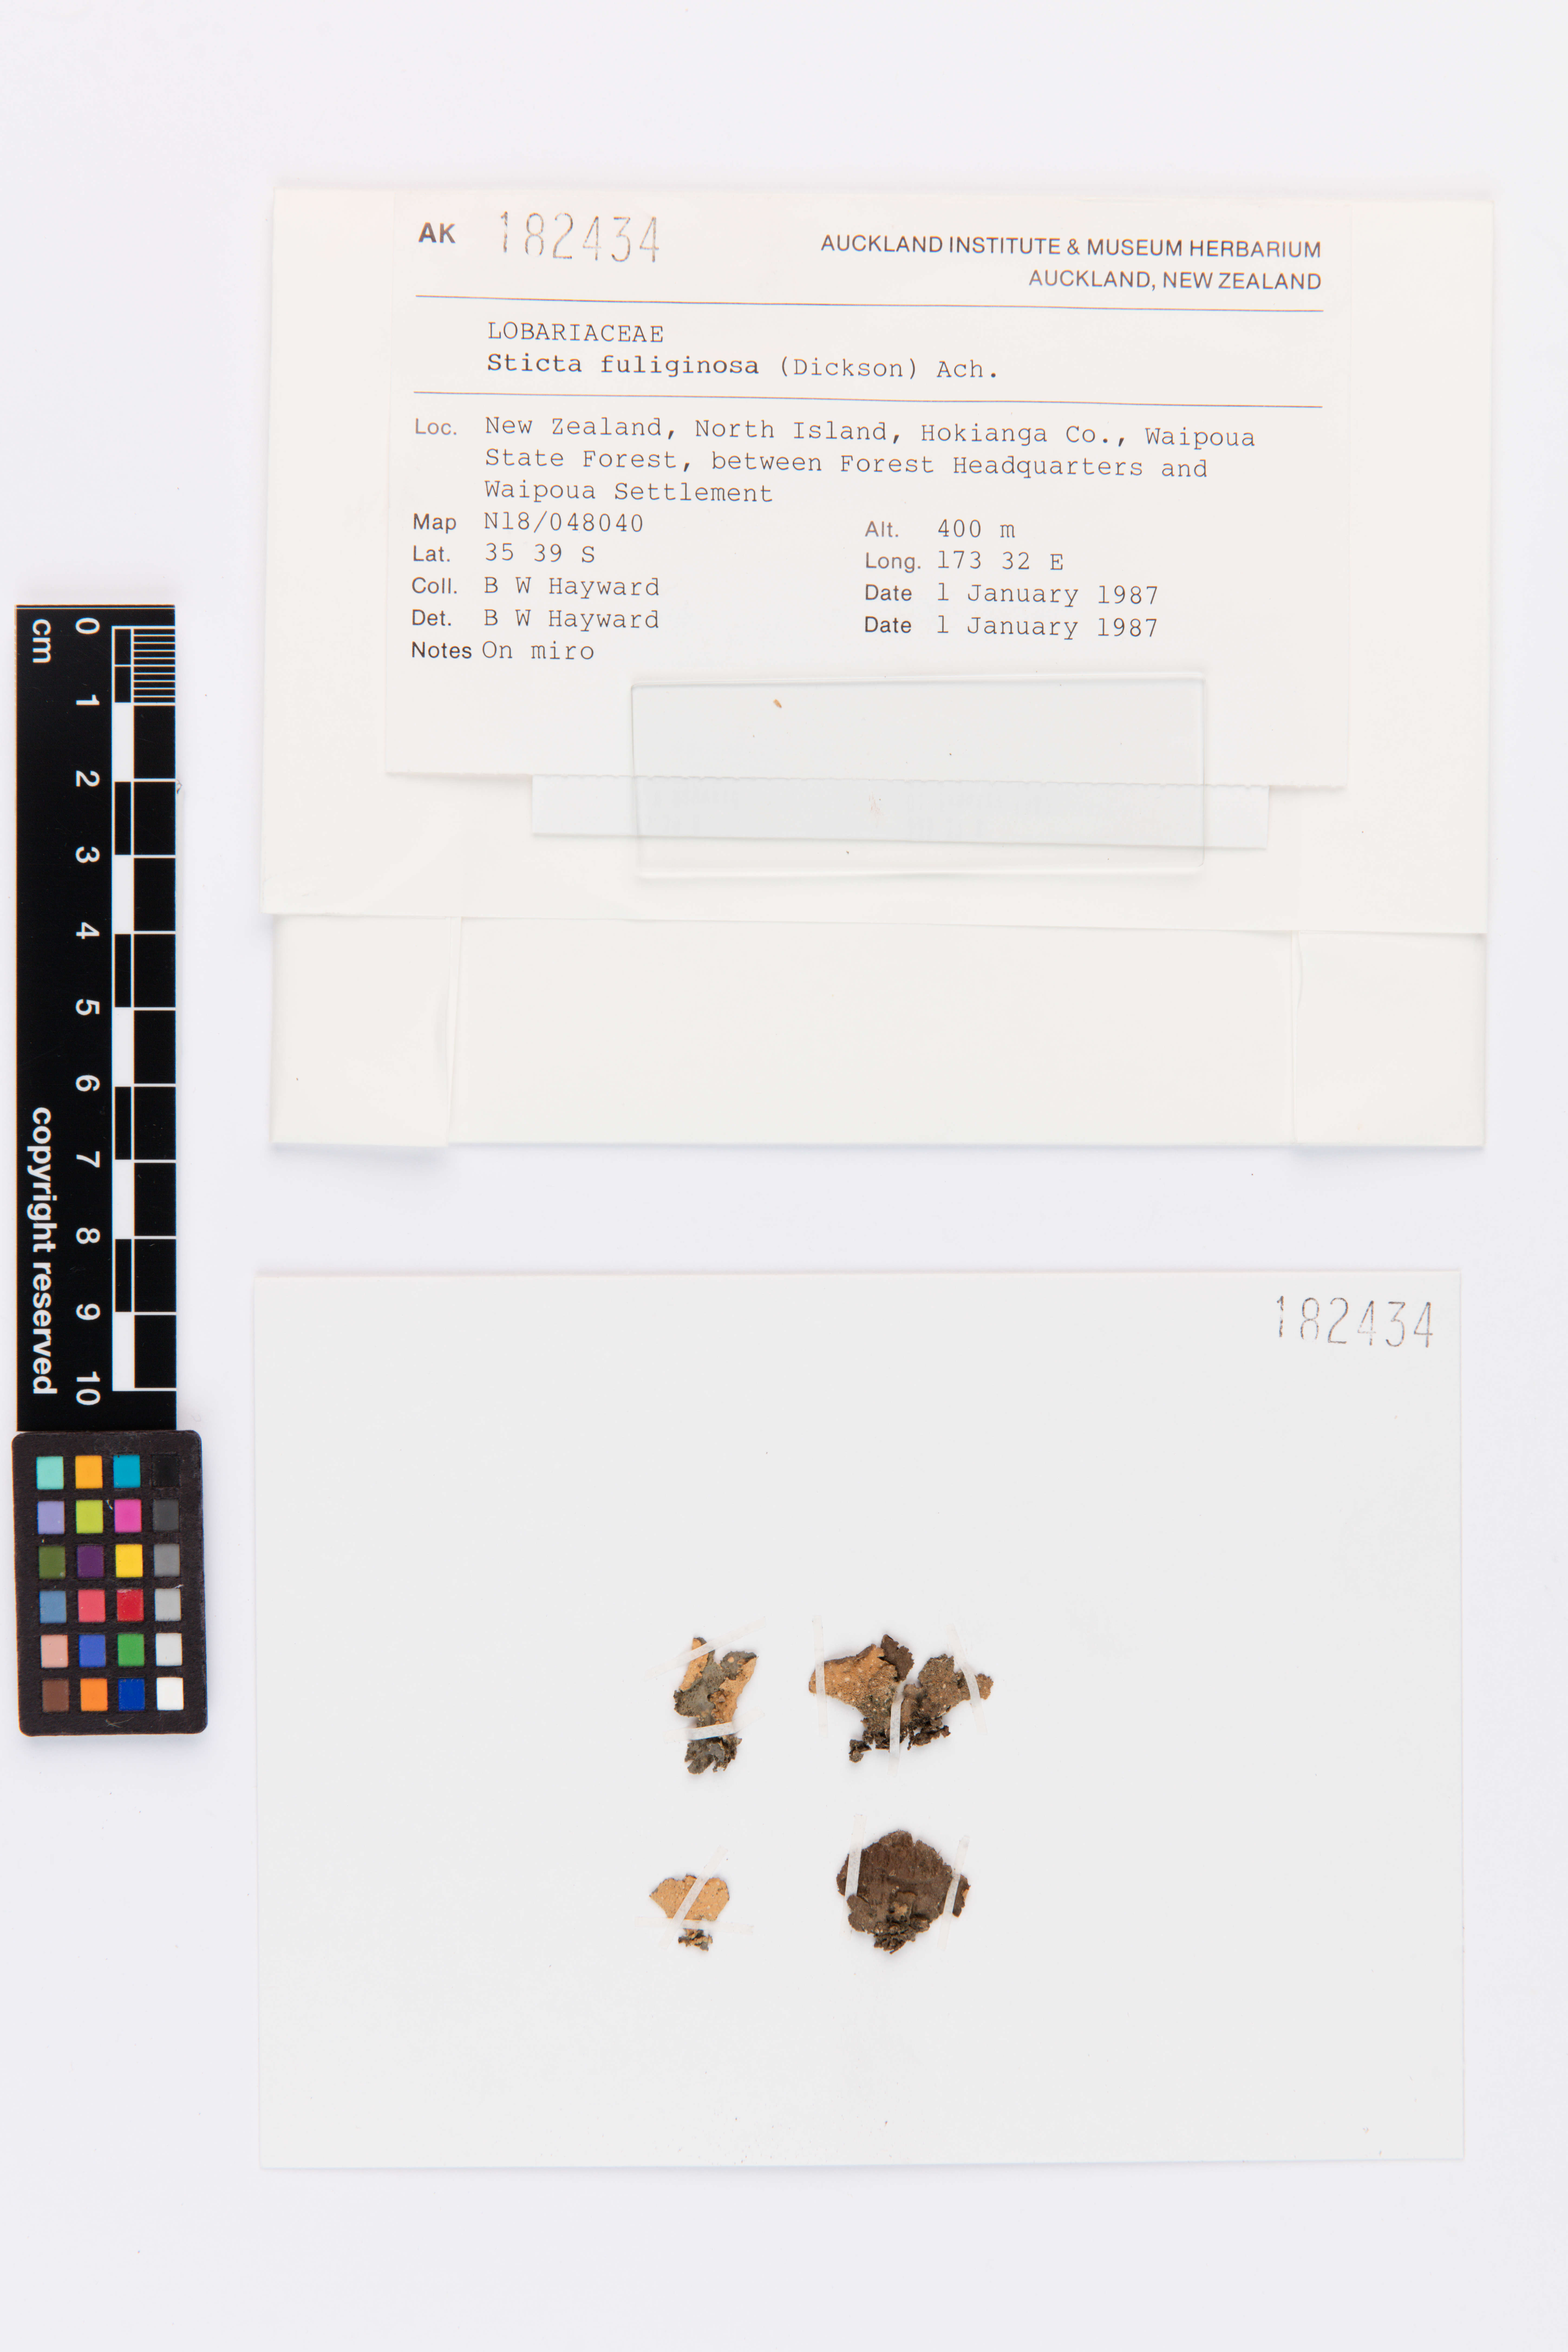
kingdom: Fungi
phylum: Ascomycota
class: Lecanoromycetes
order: Peltigerales
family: Lobariaceae
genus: Sticta
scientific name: Sticta fuliginosa
